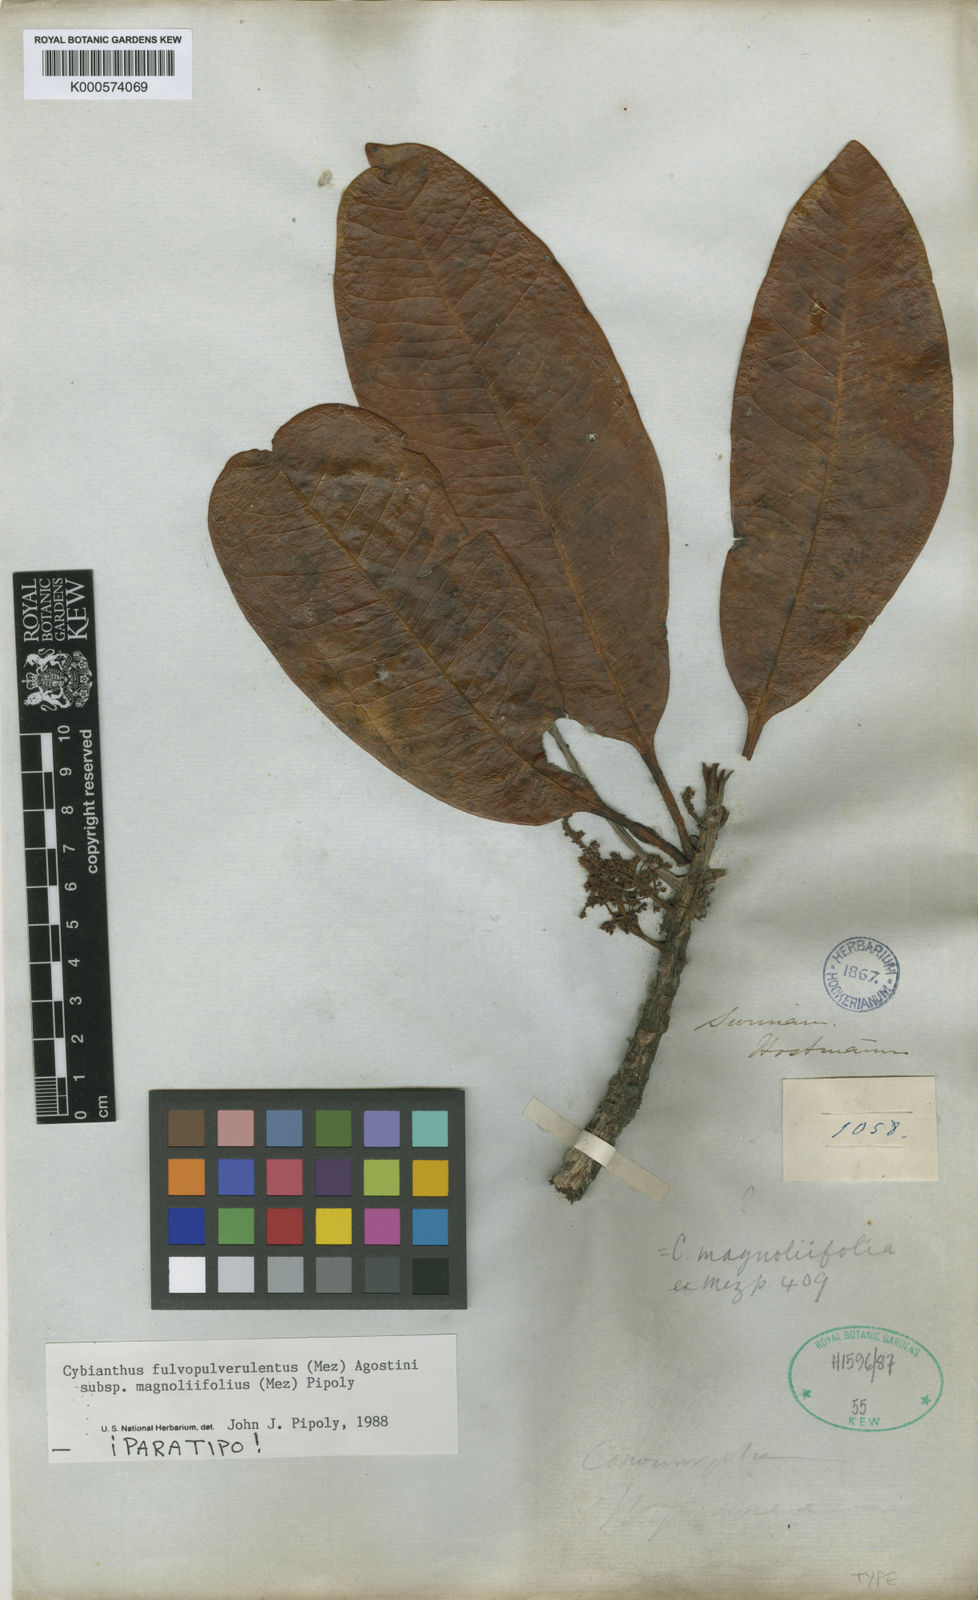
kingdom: Plantae
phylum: Tracheophyta
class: Magnoliopsida
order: Ericales
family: Primulaceae
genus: Cybianthus
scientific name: Cybianthus fulvopulverulentus
